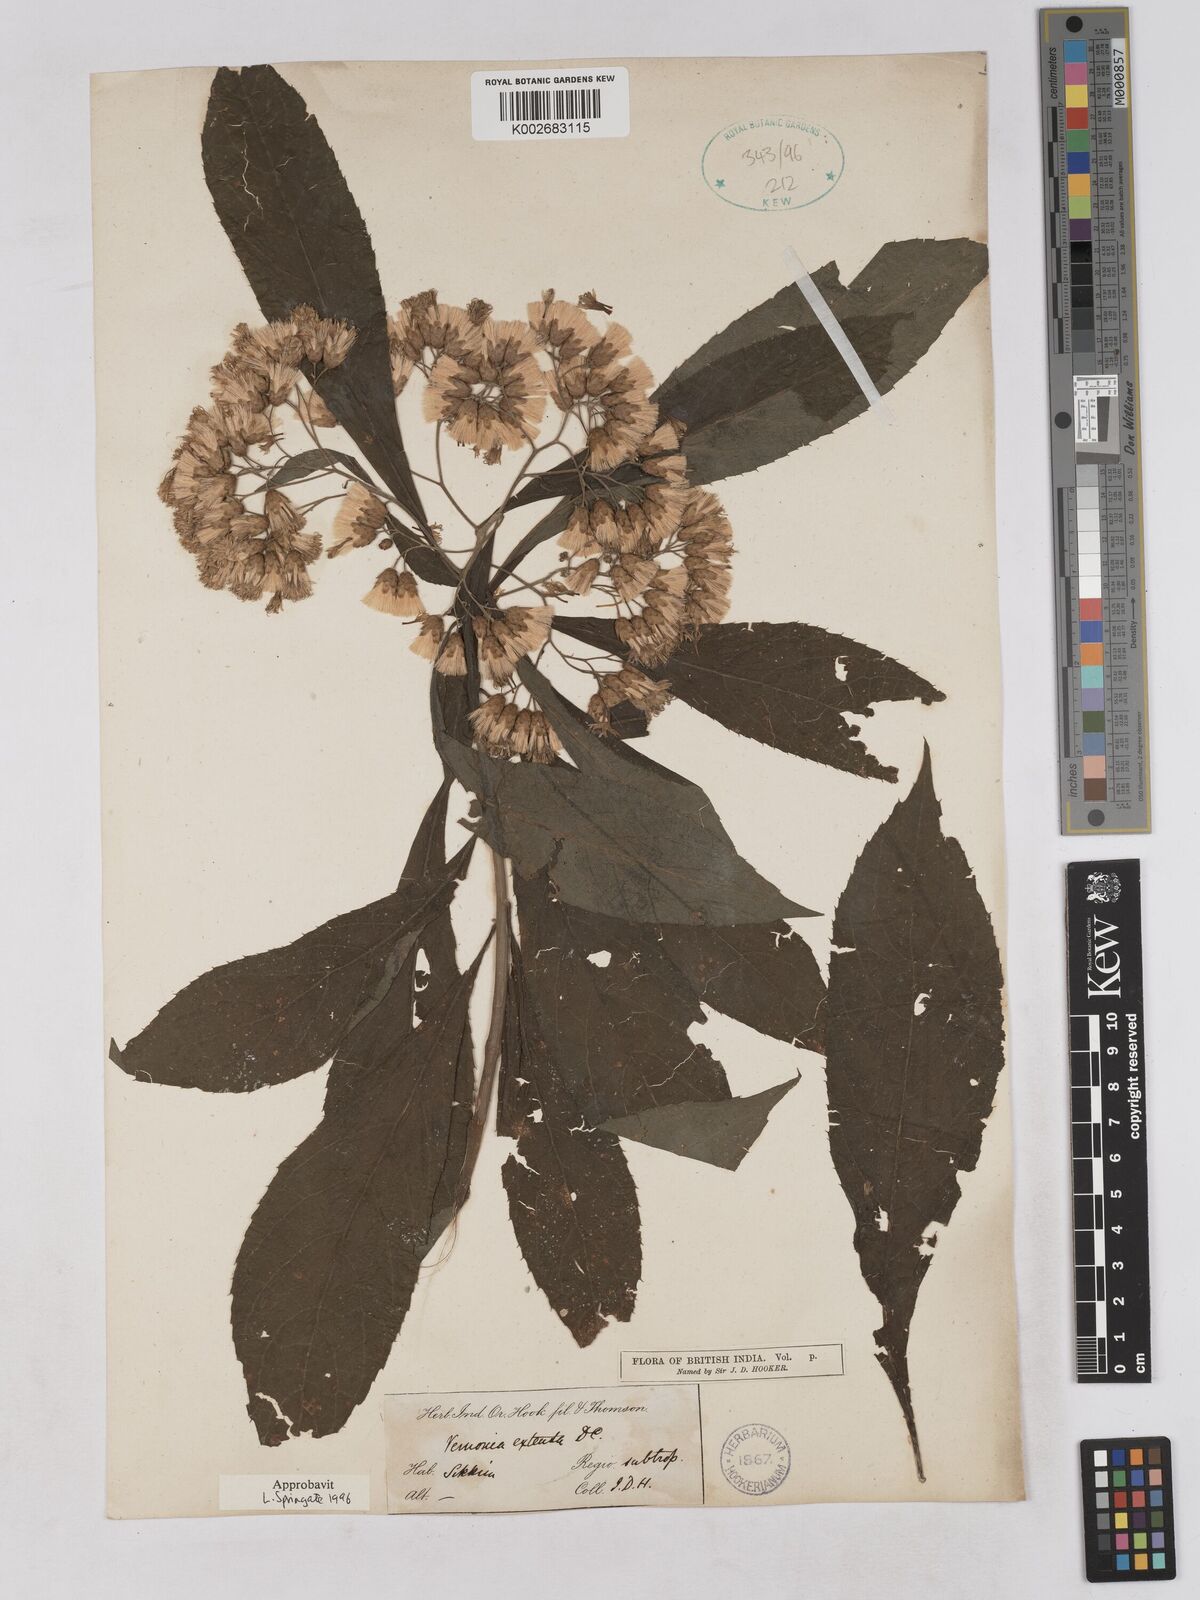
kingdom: Plantae
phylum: Tracheophyta
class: Magnoliopsida
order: Asterales
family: Asteraceae
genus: Gymnanthemum
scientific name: Gymnanthemum extensum
